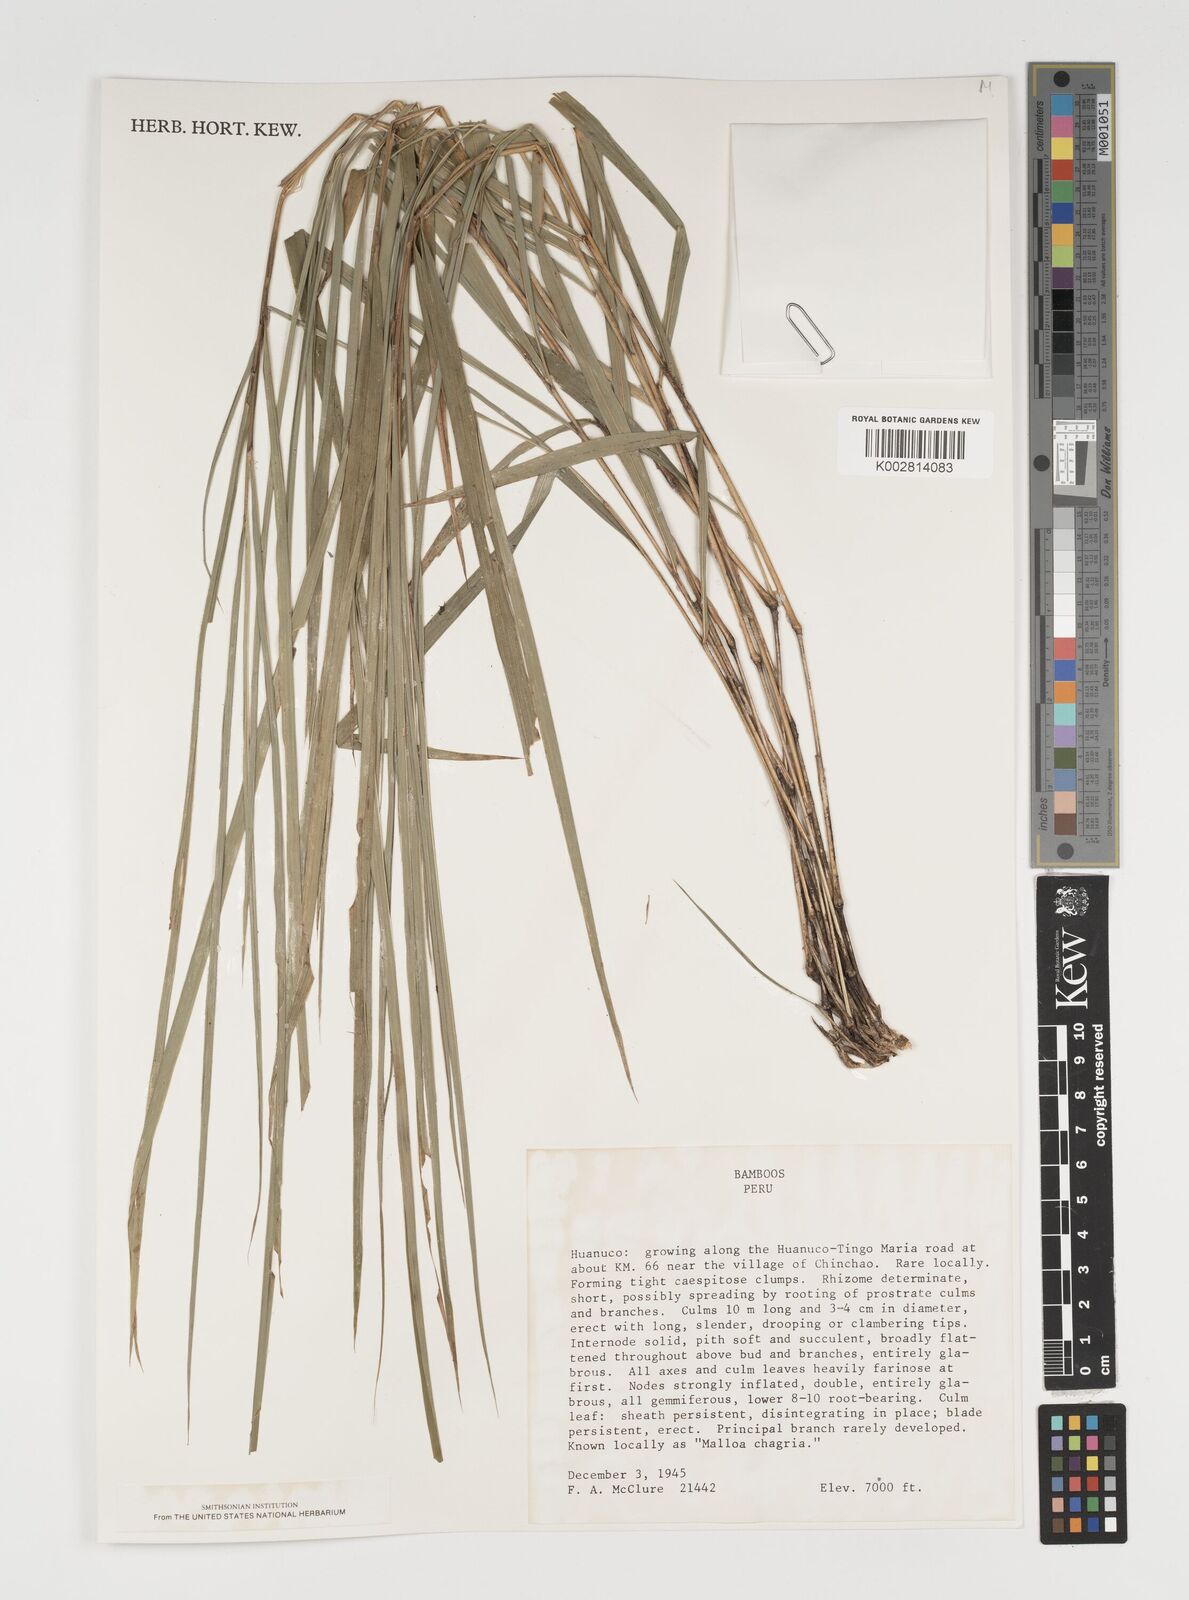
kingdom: Plantae
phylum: Tracheophyta
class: Liliopsida
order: Poales
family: Poaceae
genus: Chusquea
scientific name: Chusquea
